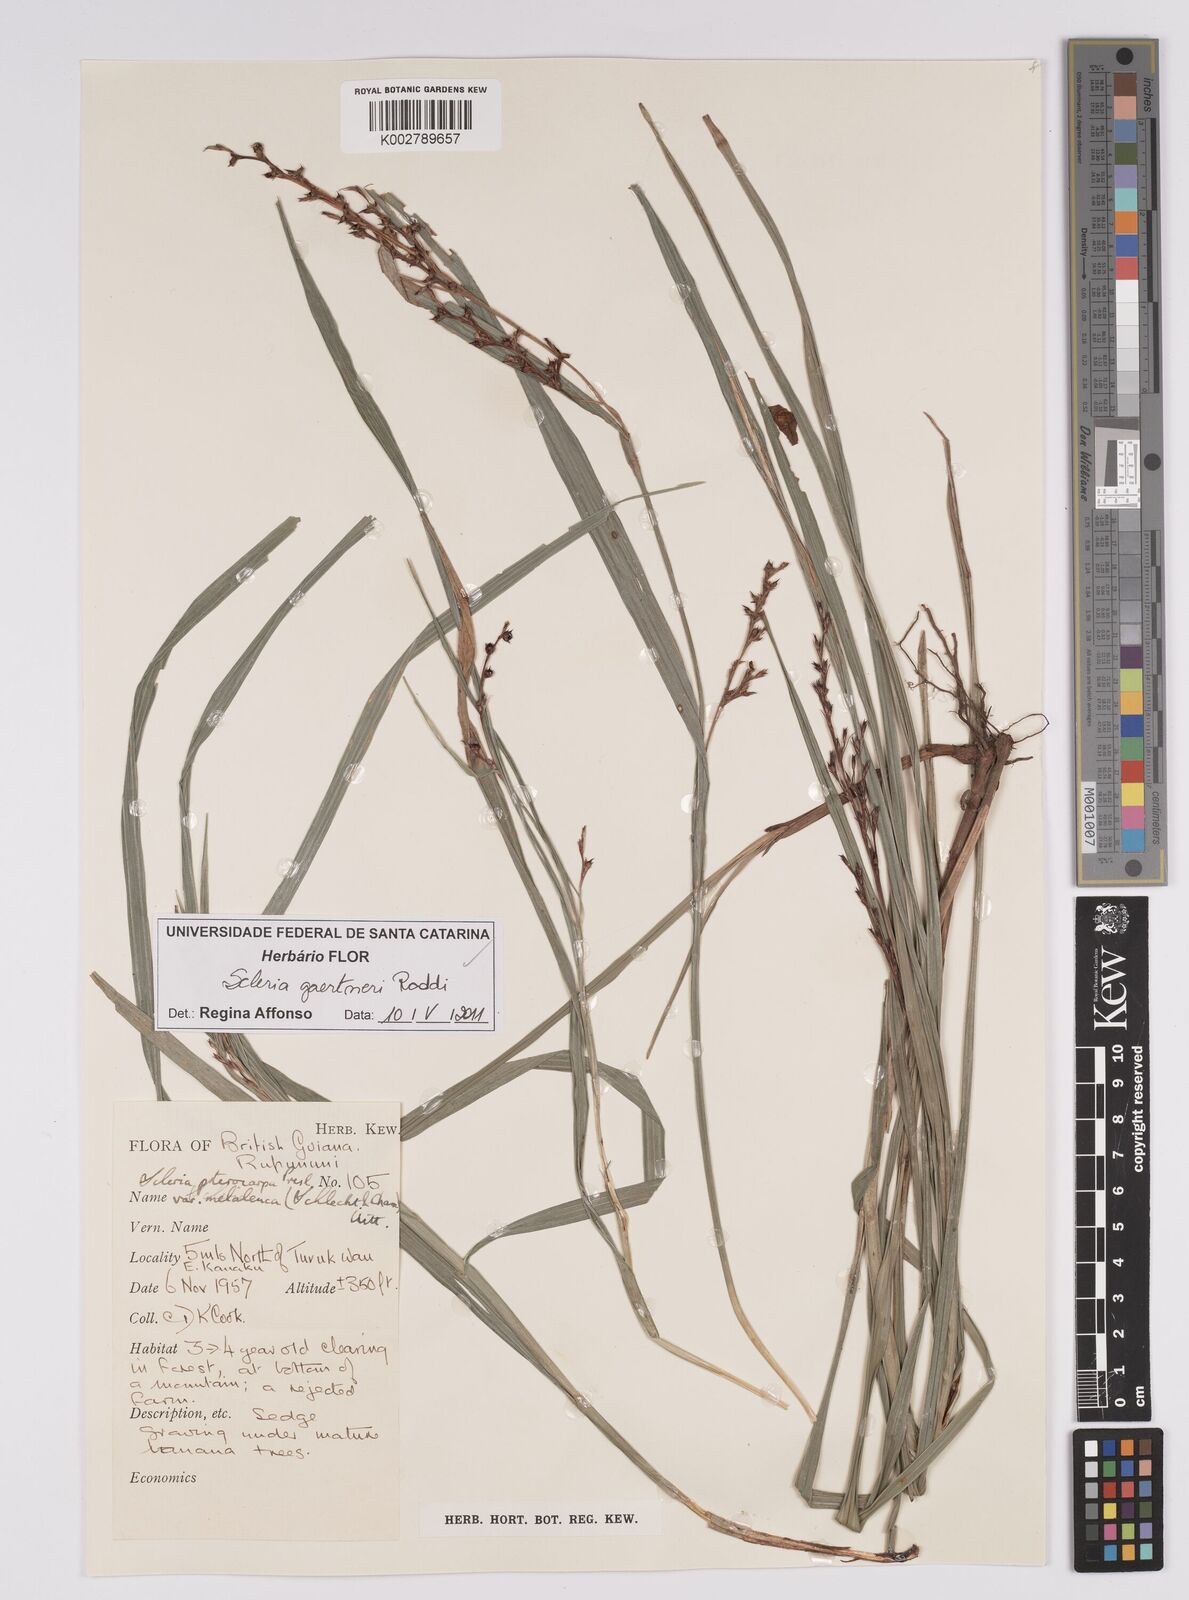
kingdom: Plantae
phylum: Tracheophyta
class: Liliopsida
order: Poales
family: Cyperaceae
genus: Scleria
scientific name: Scleria gaertneri
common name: Cortadera blanca
